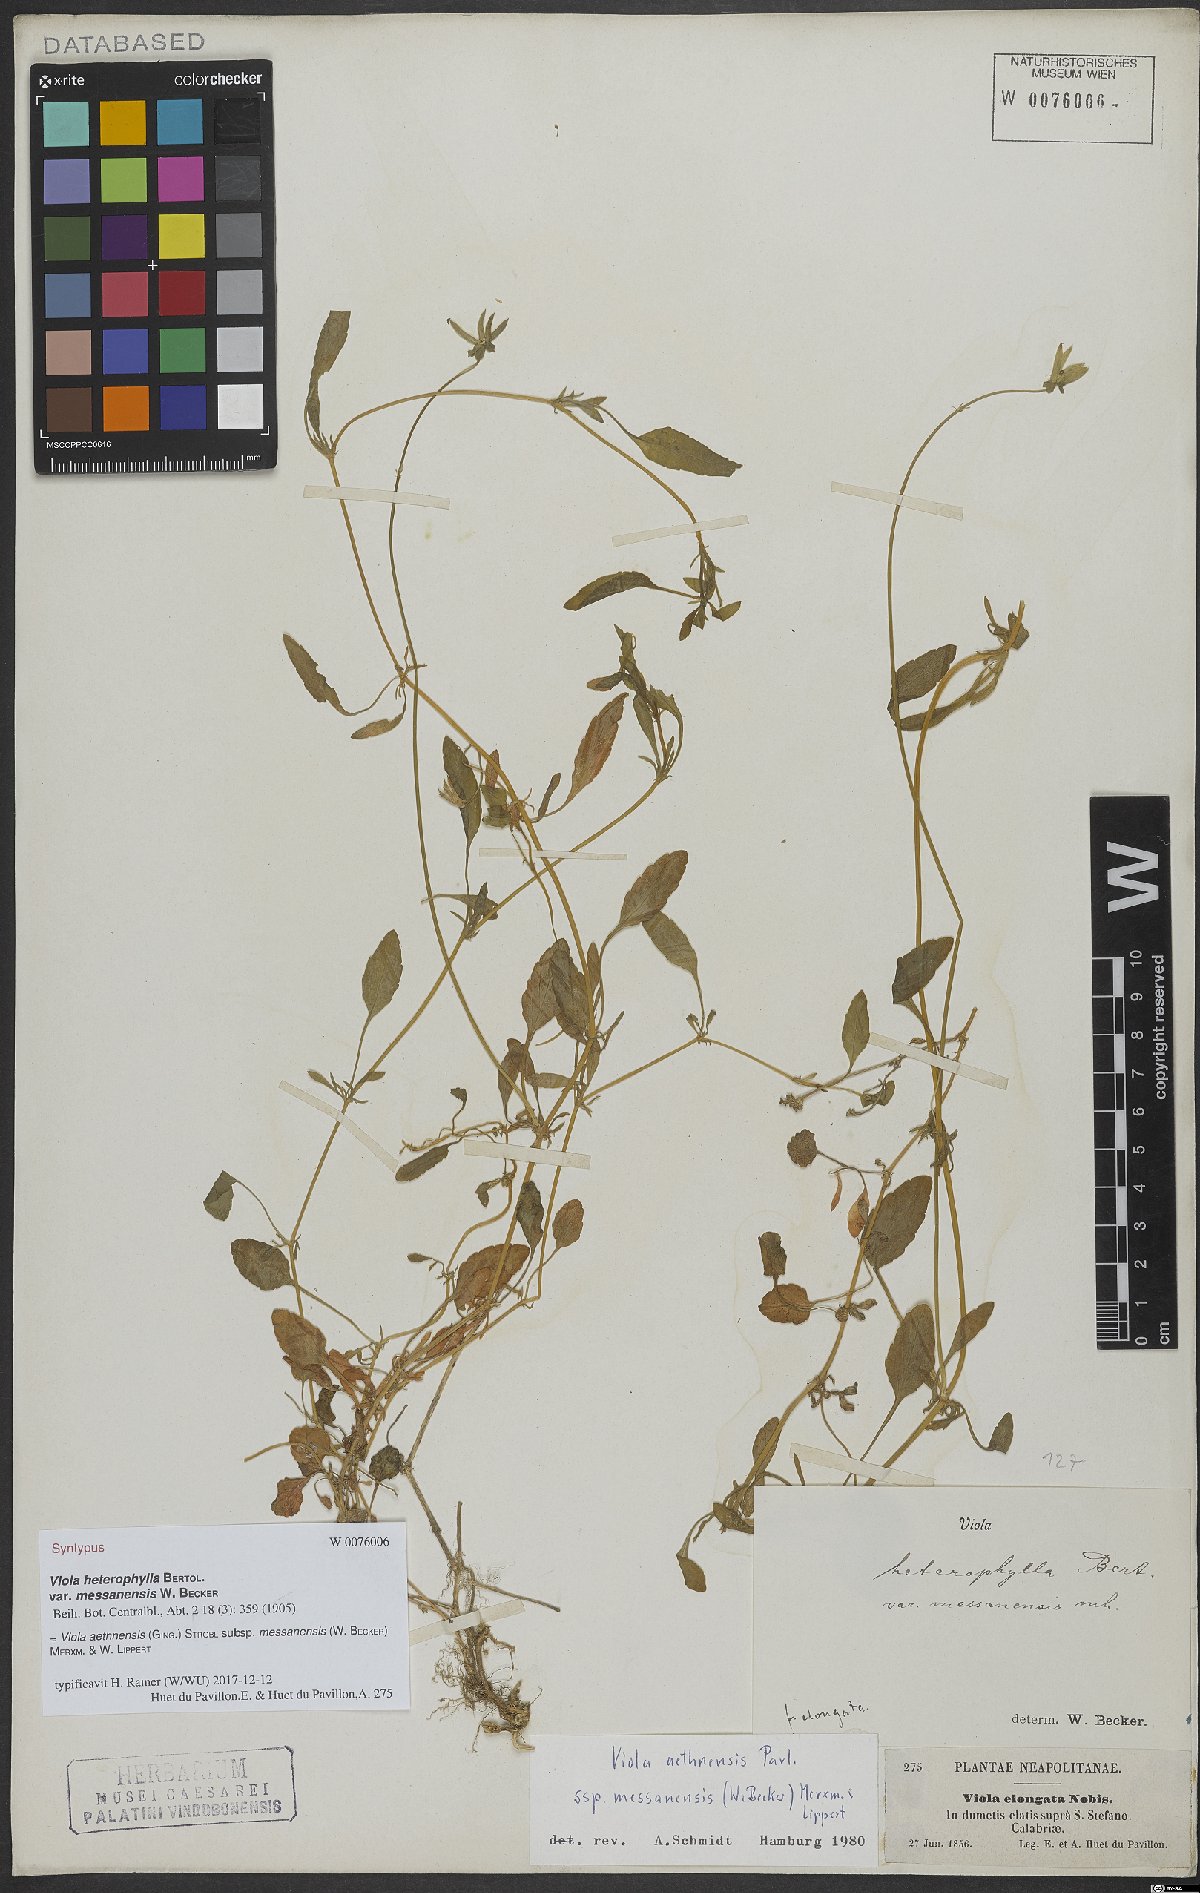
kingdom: Plantae
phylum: Tracheophyta
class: Magnoliopsida
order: Malpighiales
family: Violaceae
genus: Viola
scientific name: Viola aethnensis
